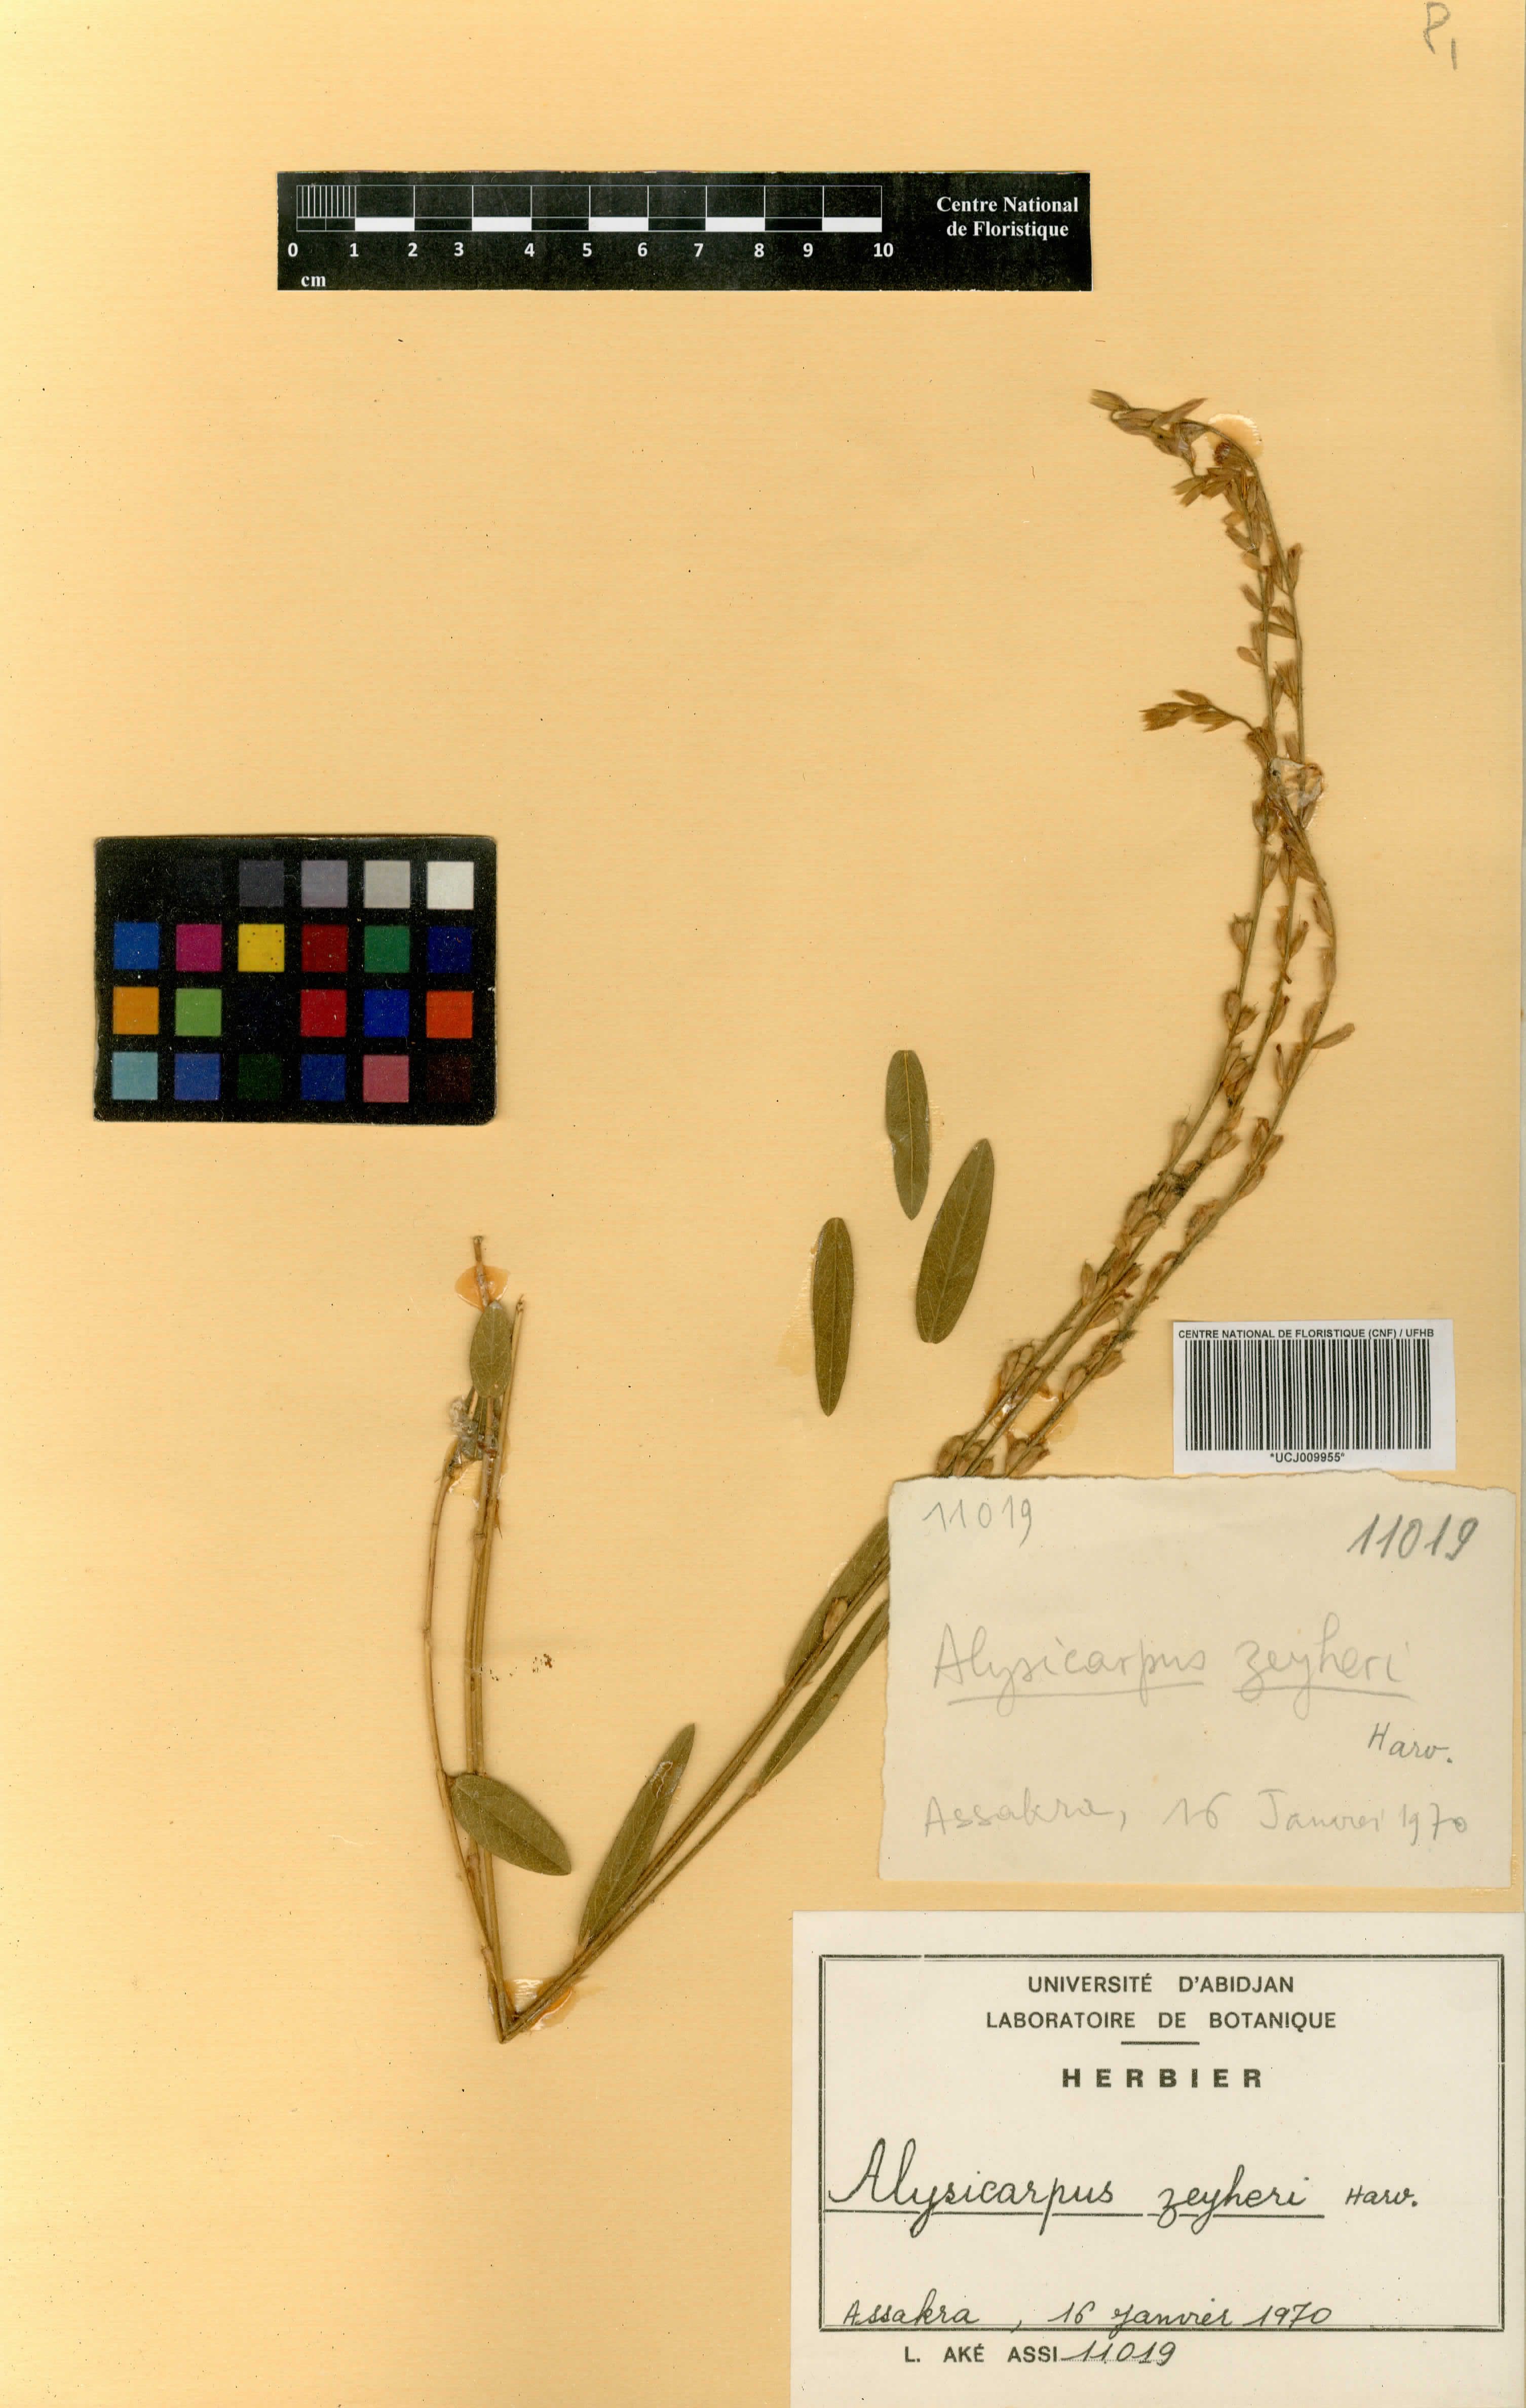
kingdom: Plantae
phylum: Tracheophyta
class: Magnoliopsida
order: Fabales
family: Fabaceae
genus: Alysicarpus
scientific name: Alysicarpus zeyheri
